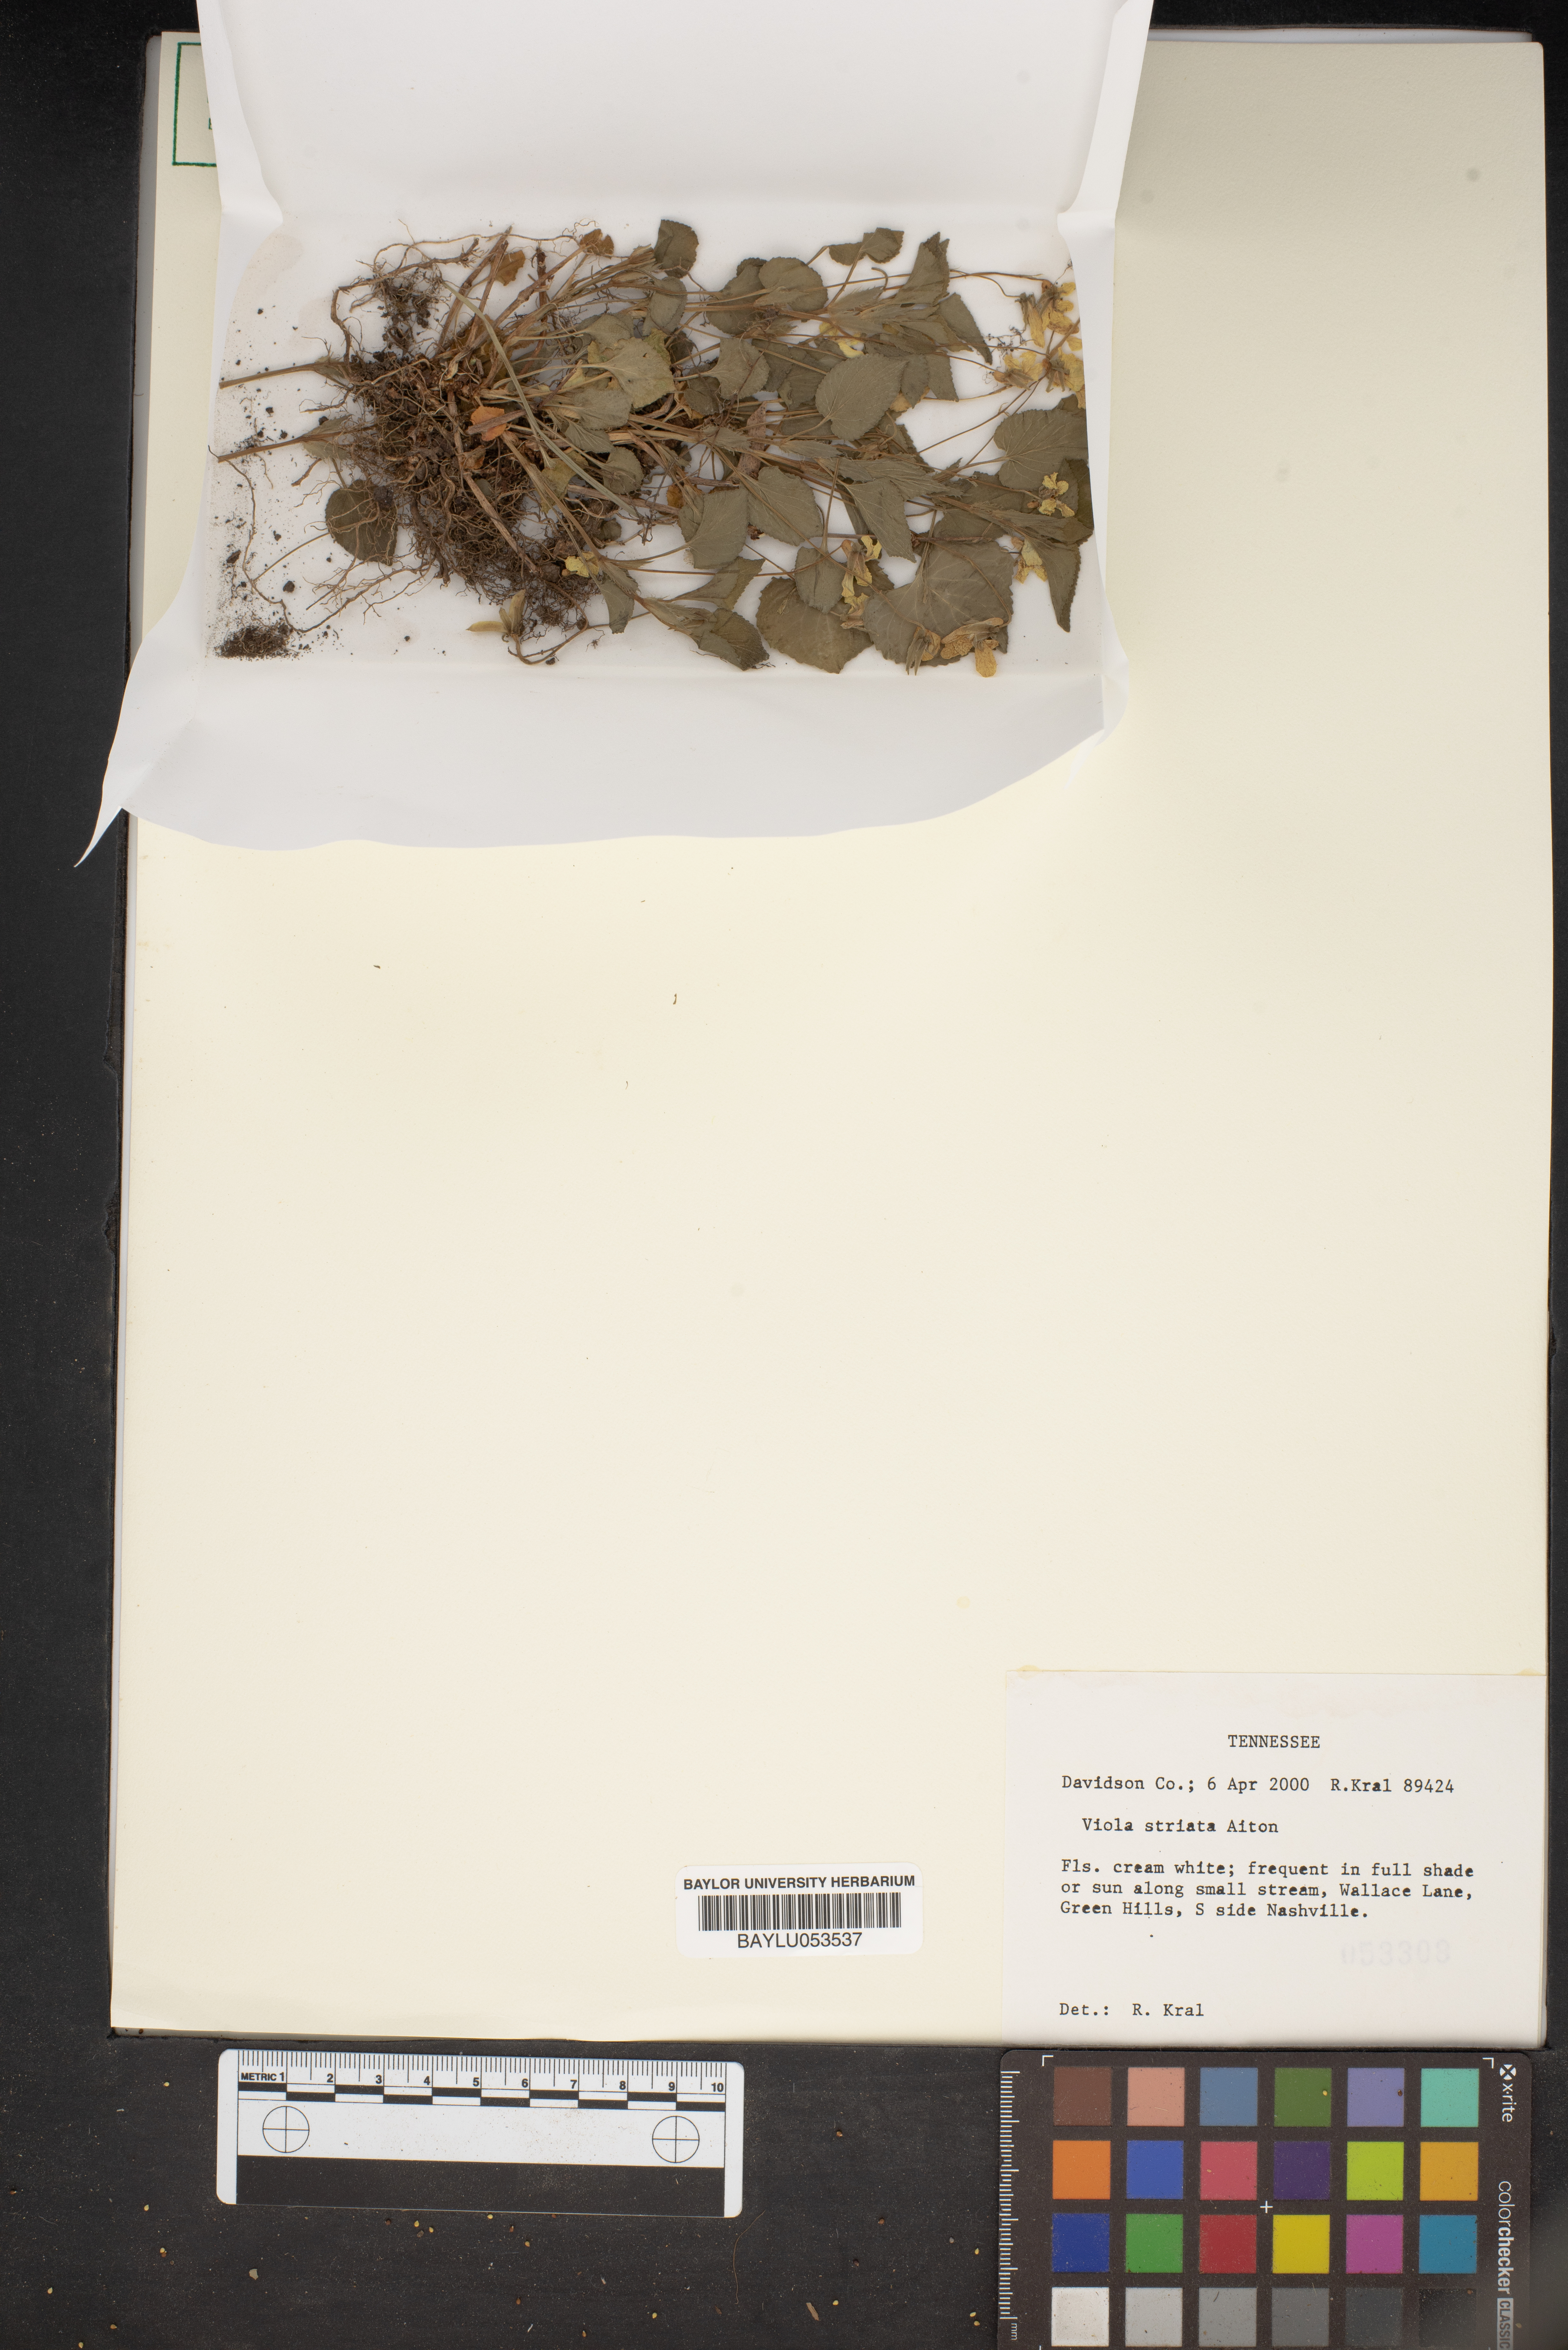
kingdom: Plantae
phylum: Tracheophyta
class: Magnoliopsida
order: Malpighiales
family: Violaceae
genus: Viola
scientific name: Viola striata
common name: Cream violet
